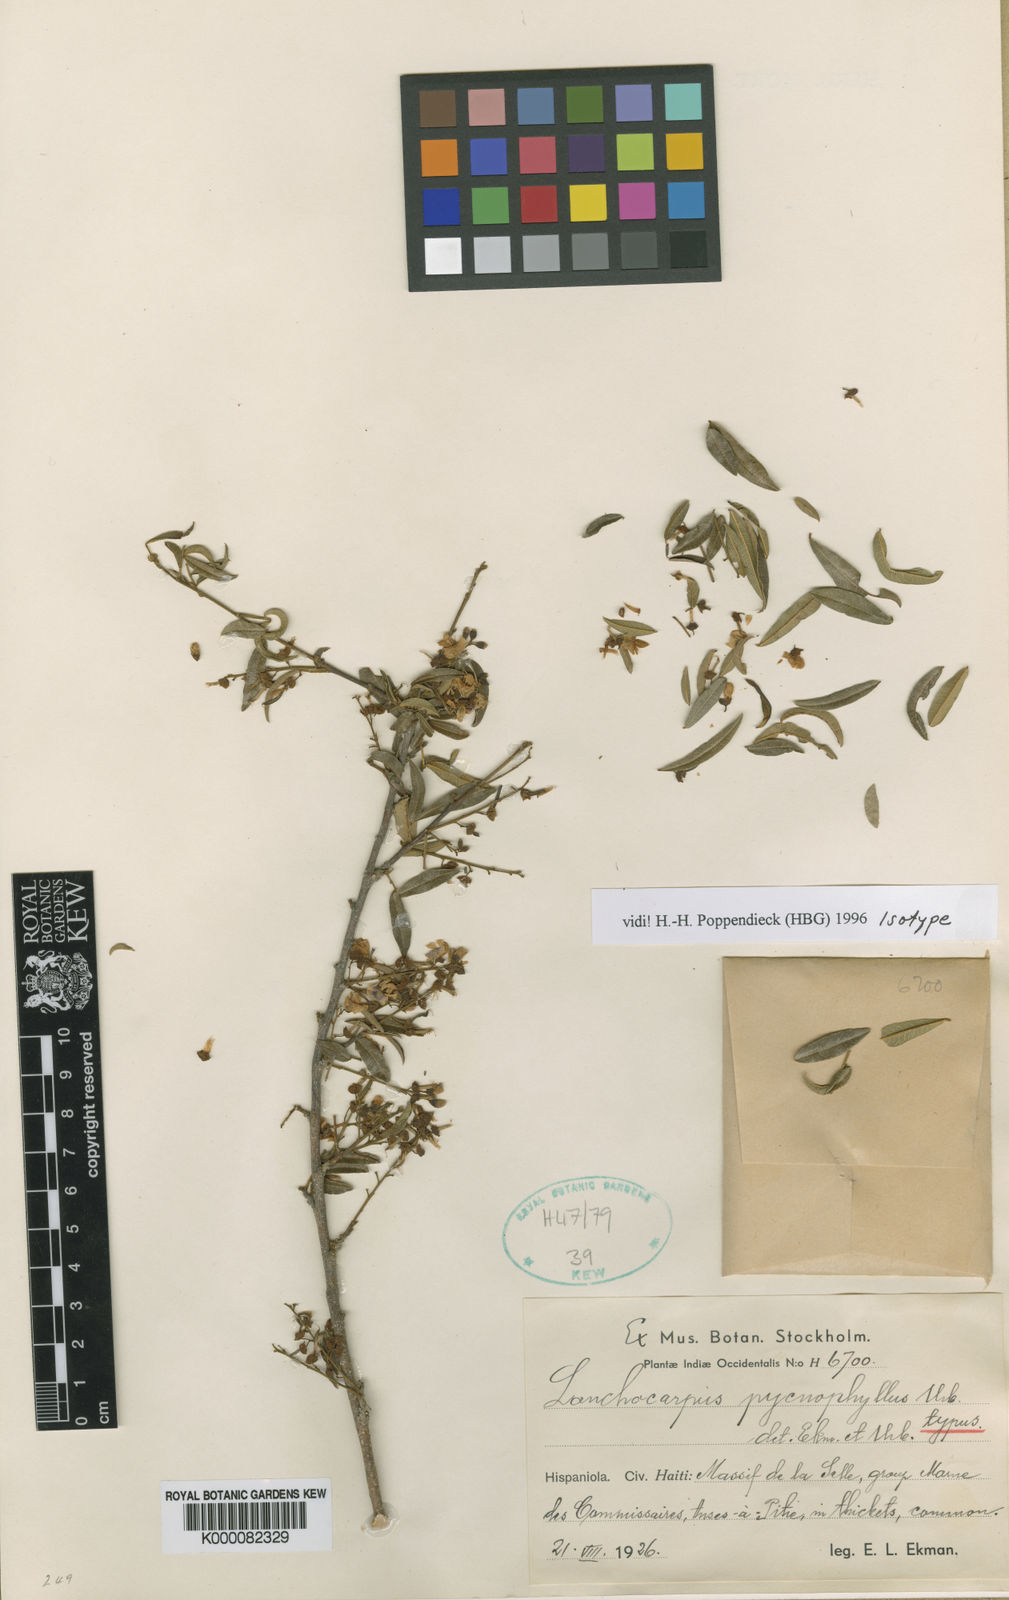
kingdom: Plantae
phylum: Tracheophyta
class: Magnoliopsida
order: Fabales
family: Fabaceae
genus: Lonchocarpus
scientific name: Lonchocarpus pycnophyllus
